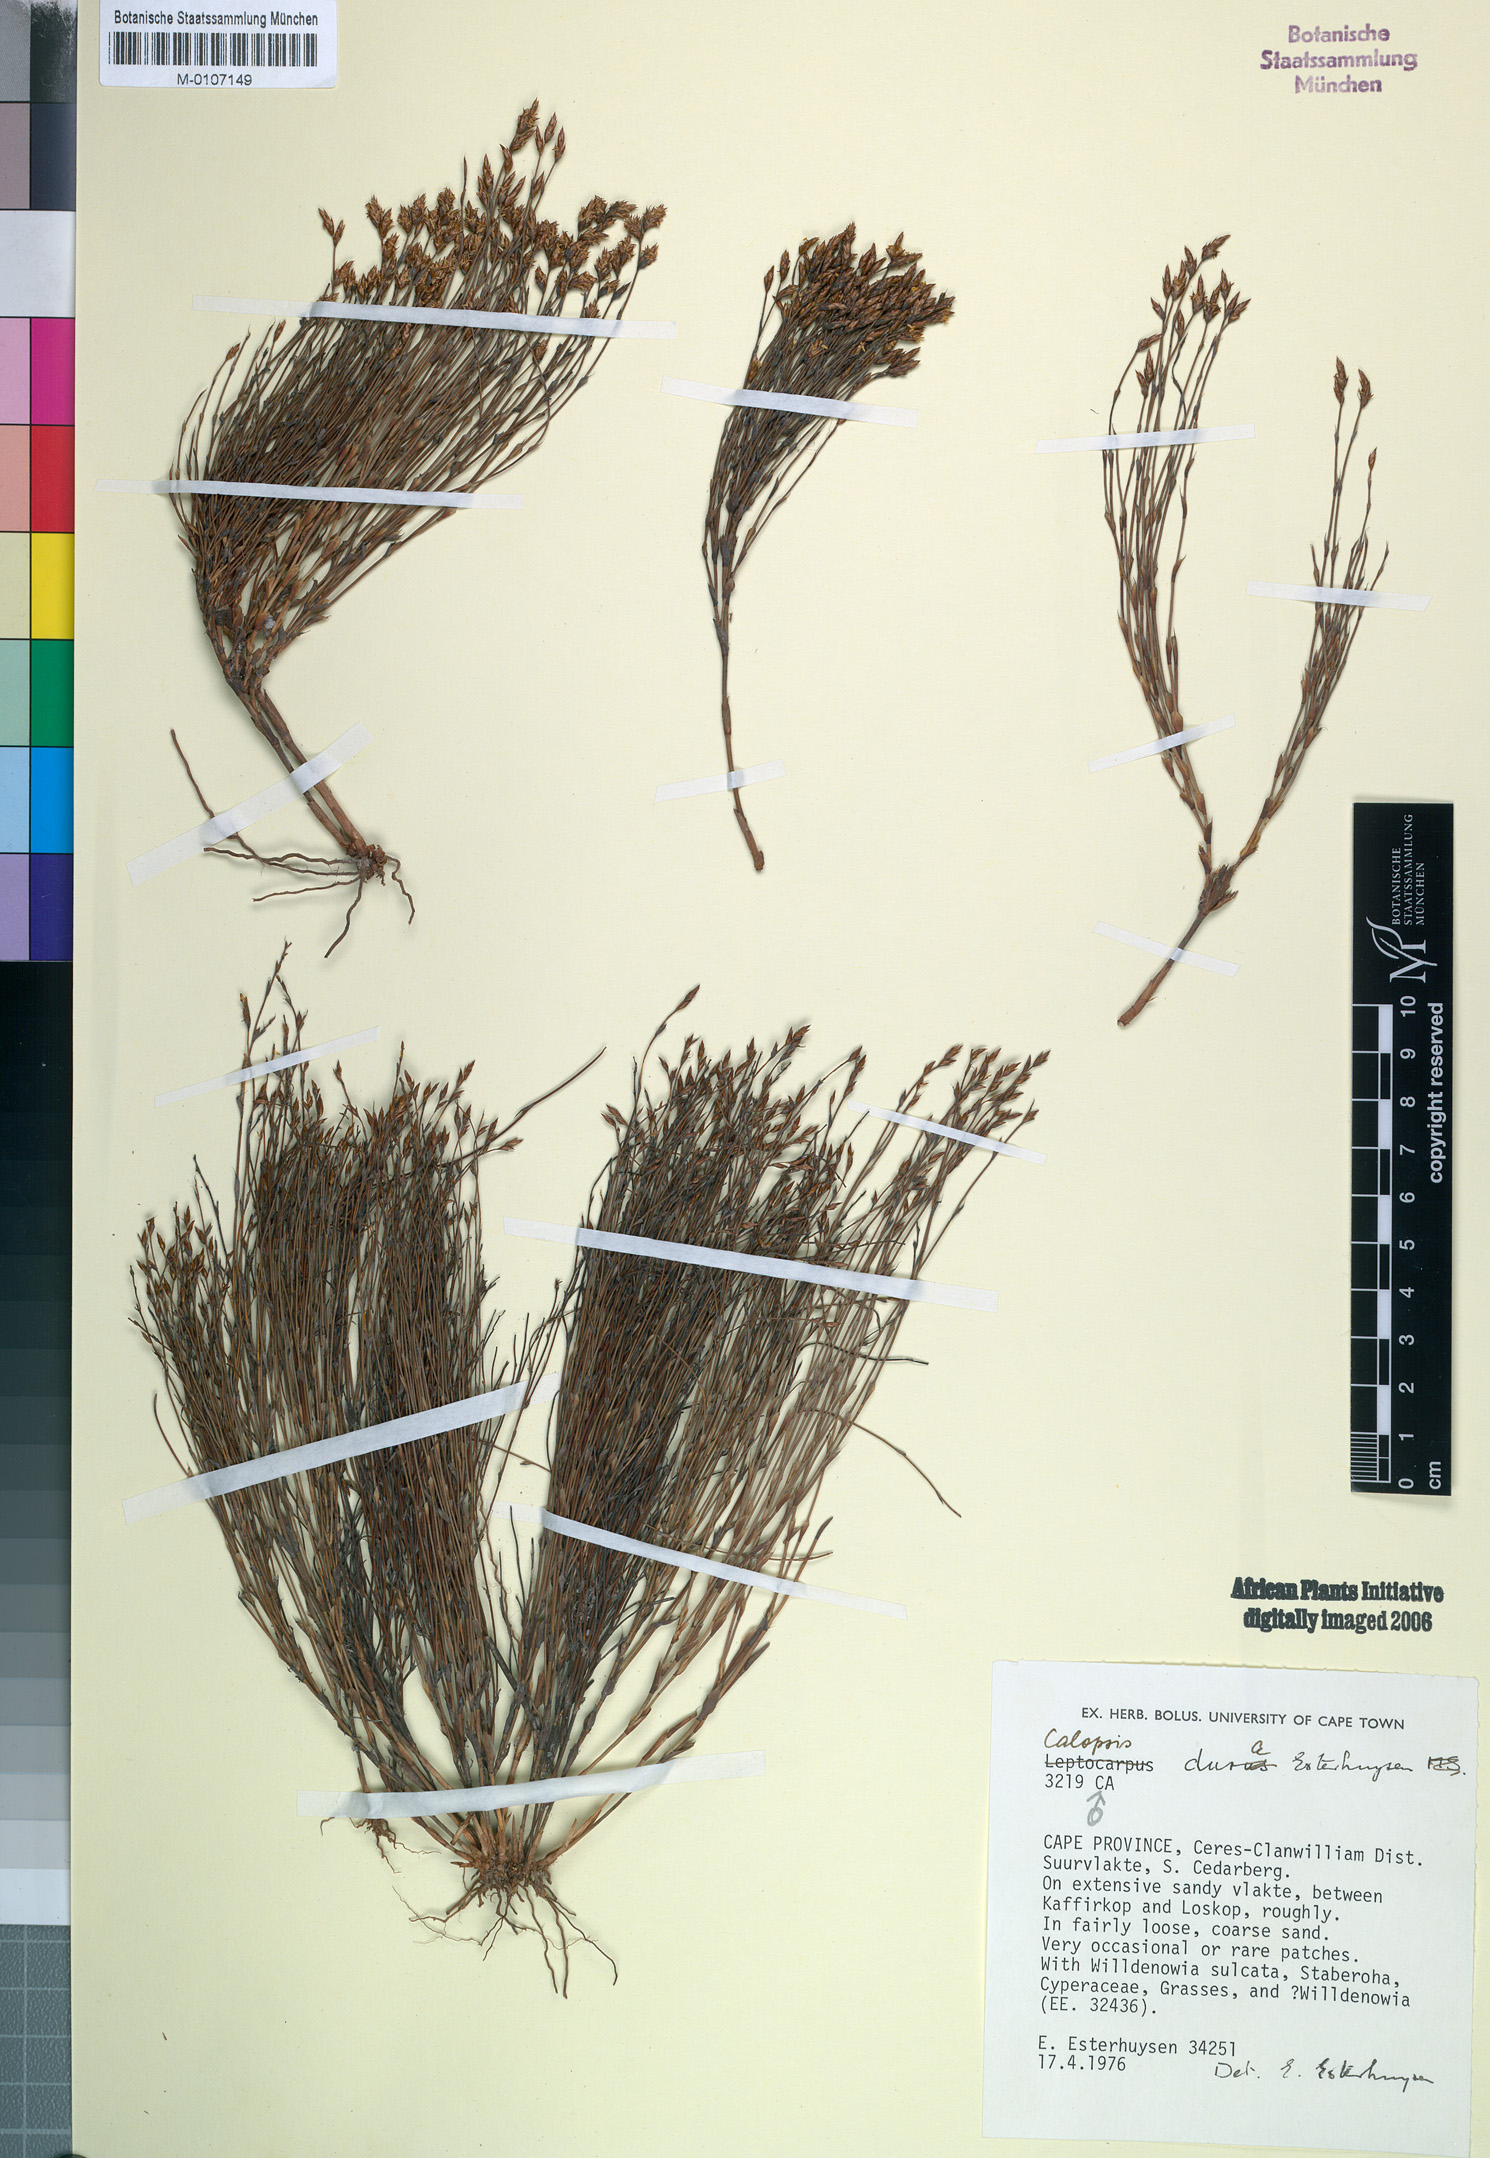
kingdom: Plantae
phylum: Tracheophyta
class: Liliopsida
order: Poales
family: Restionaceae
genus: Restio
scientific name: Restio durus
